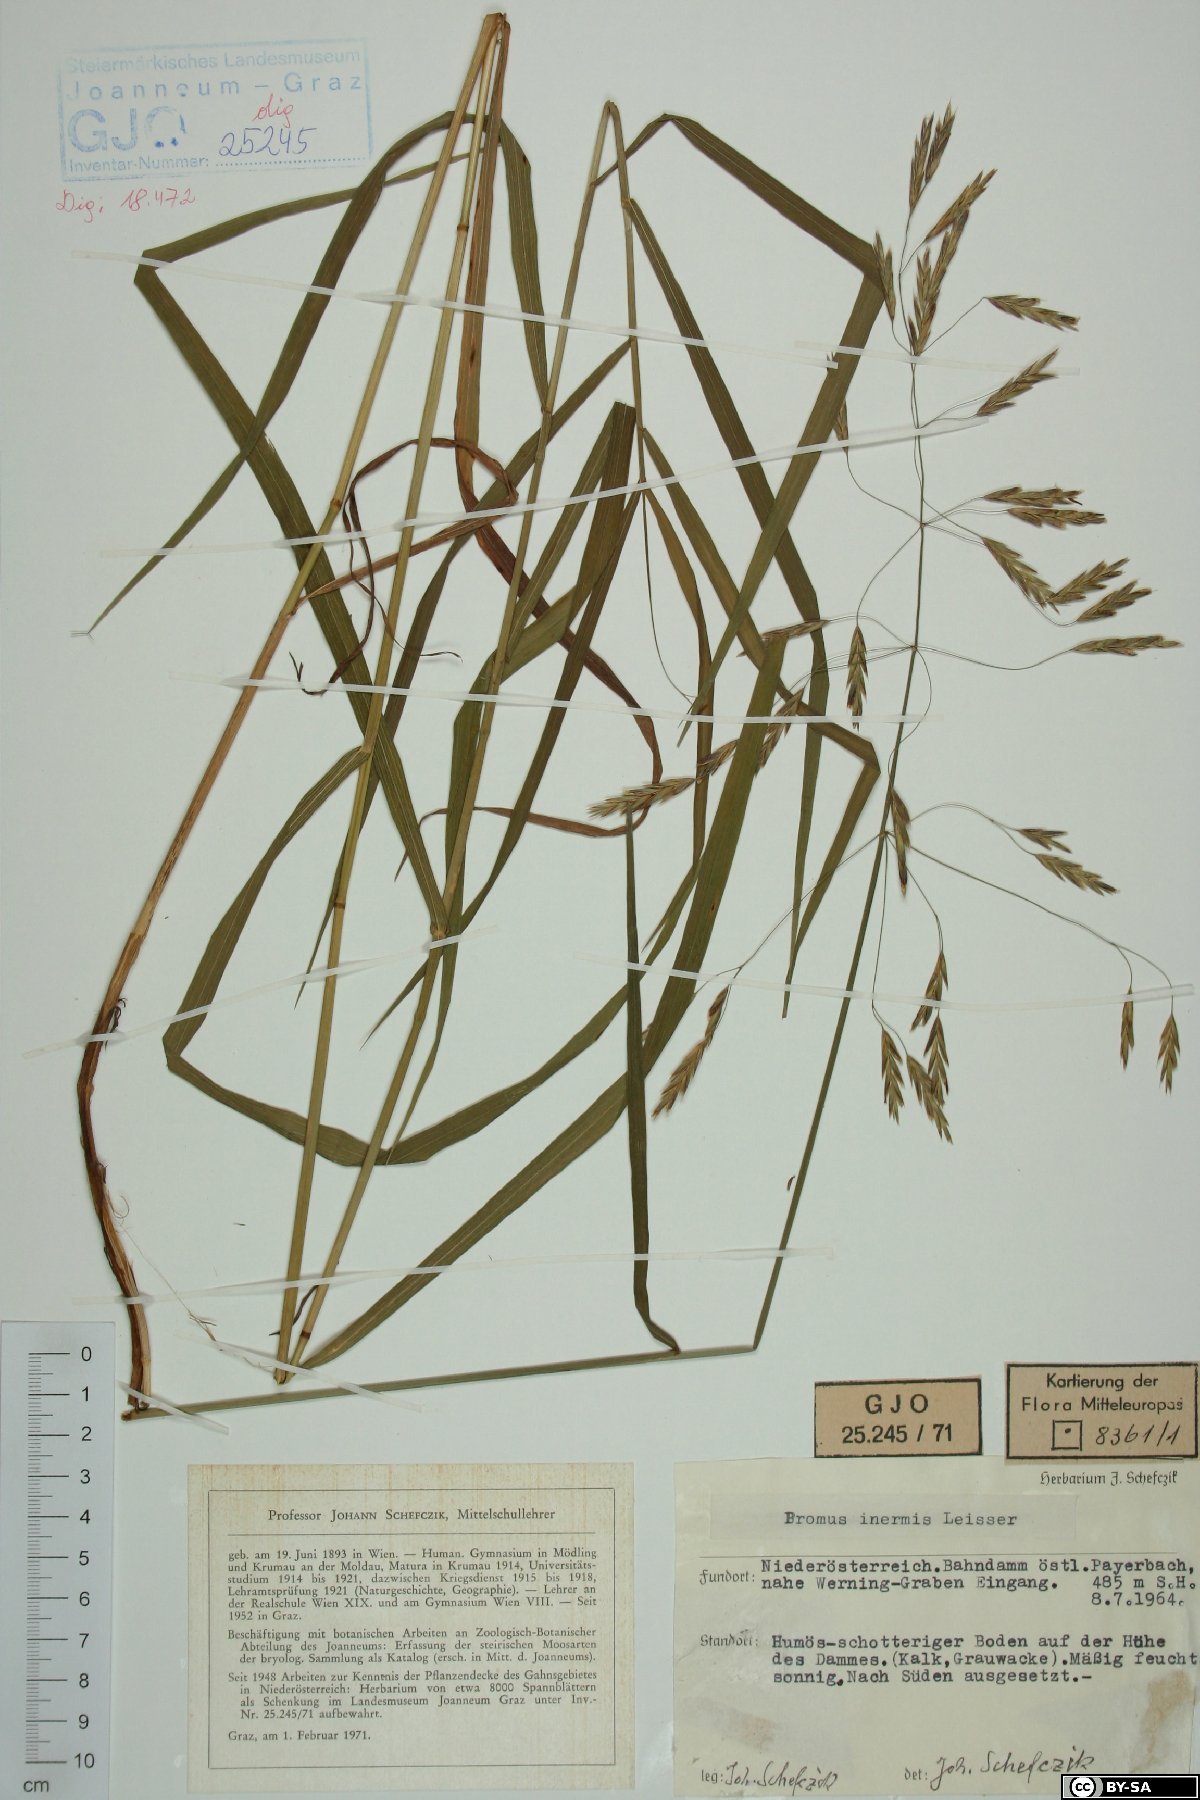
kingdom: Plantae
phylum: Tracheophyta
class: Liliopsida
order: Poales
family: Poaceae
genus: Bromus
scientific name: Bromus inermis
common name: Smooth brome
